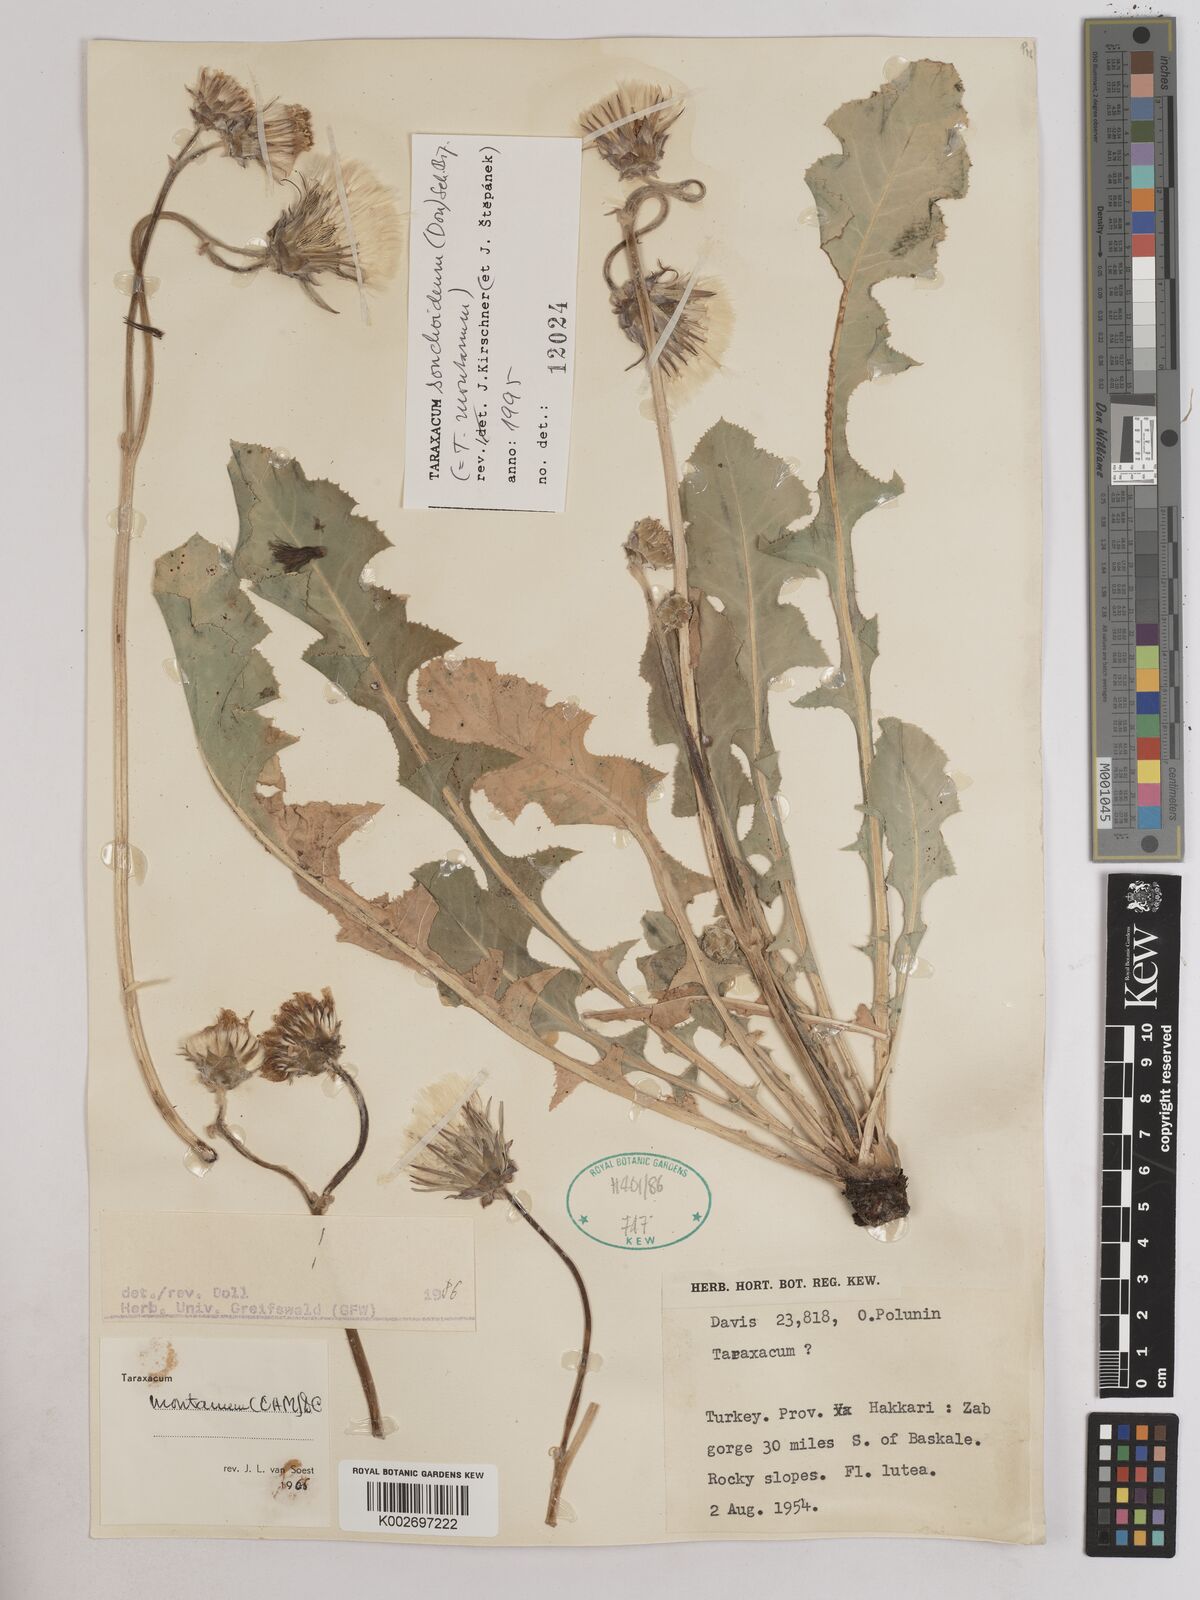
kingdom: Plantae
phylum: Tracheophyta
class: Magnoliopsida
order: Asterales
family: Asteraceae
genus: Taraxacum
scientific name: Taraxacum sonchoides
